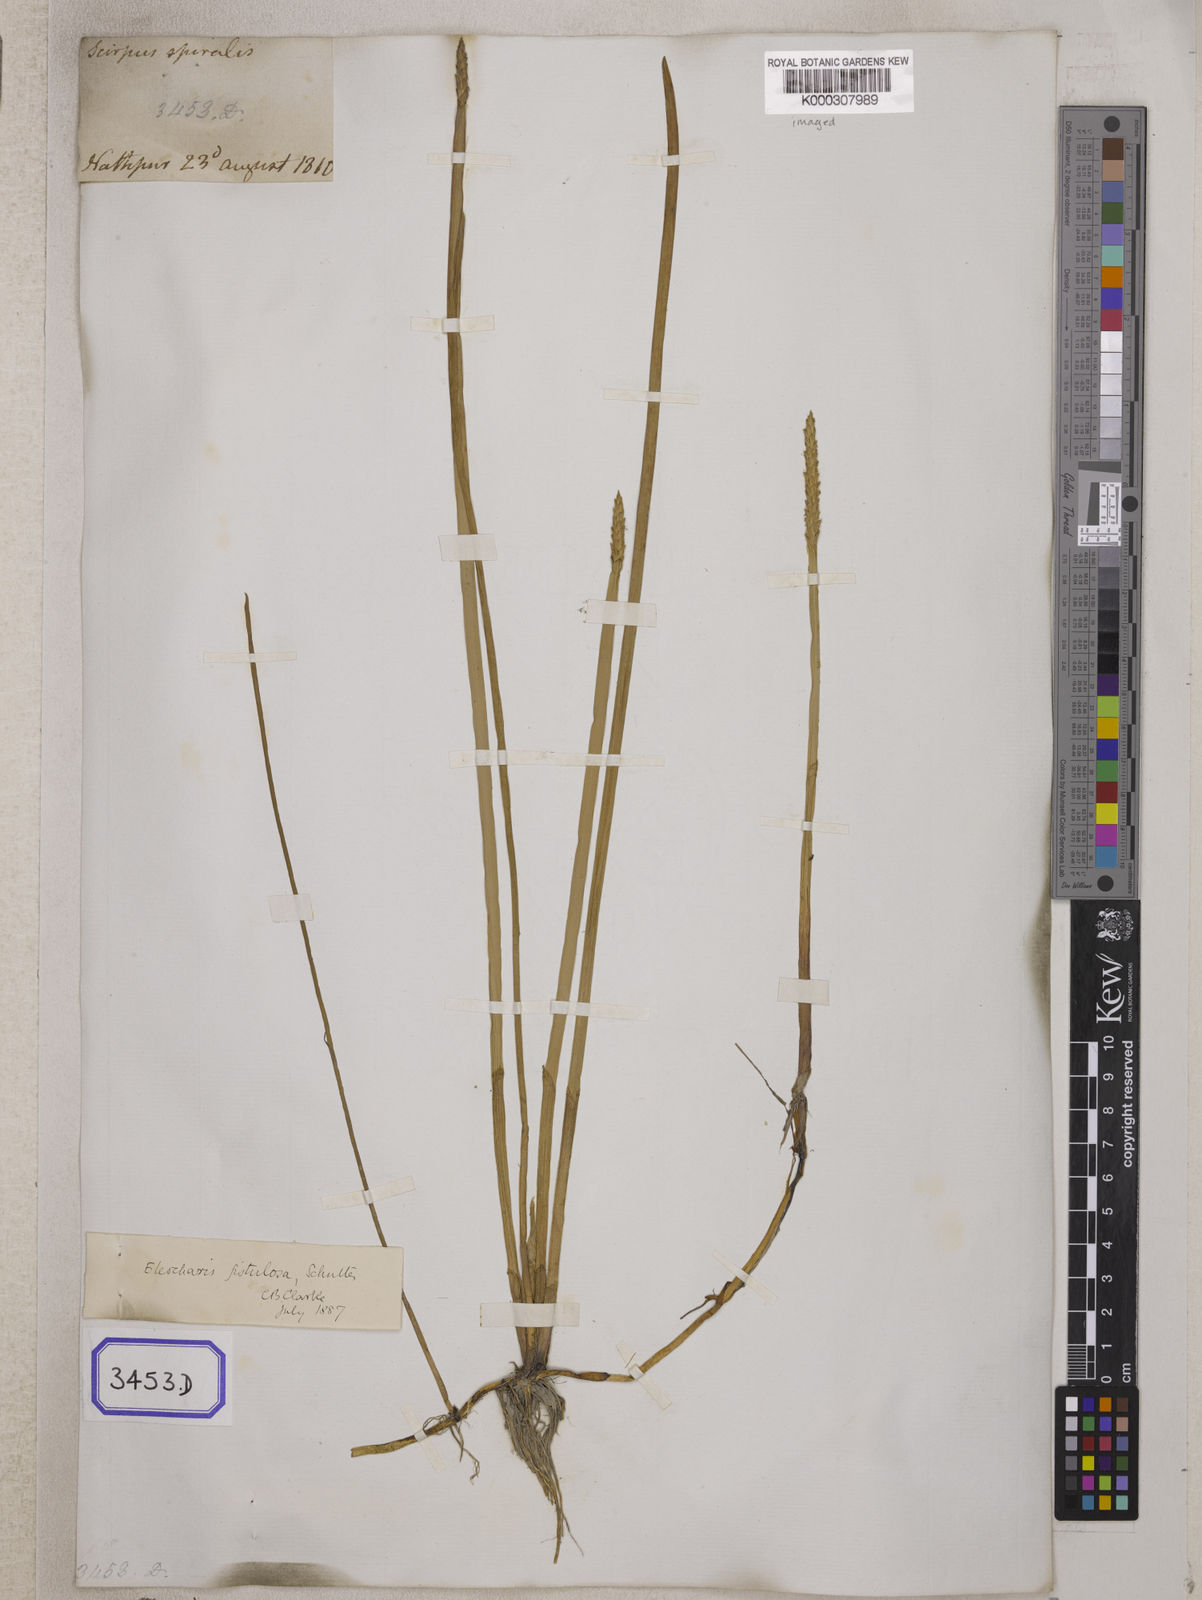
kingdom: Plantae
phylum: Tracheophyta
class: Liliopsida
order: Poales
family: Cyperaceae
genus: Eleocharis
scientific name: Eleocharis acutangula
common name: Acute spikerush
